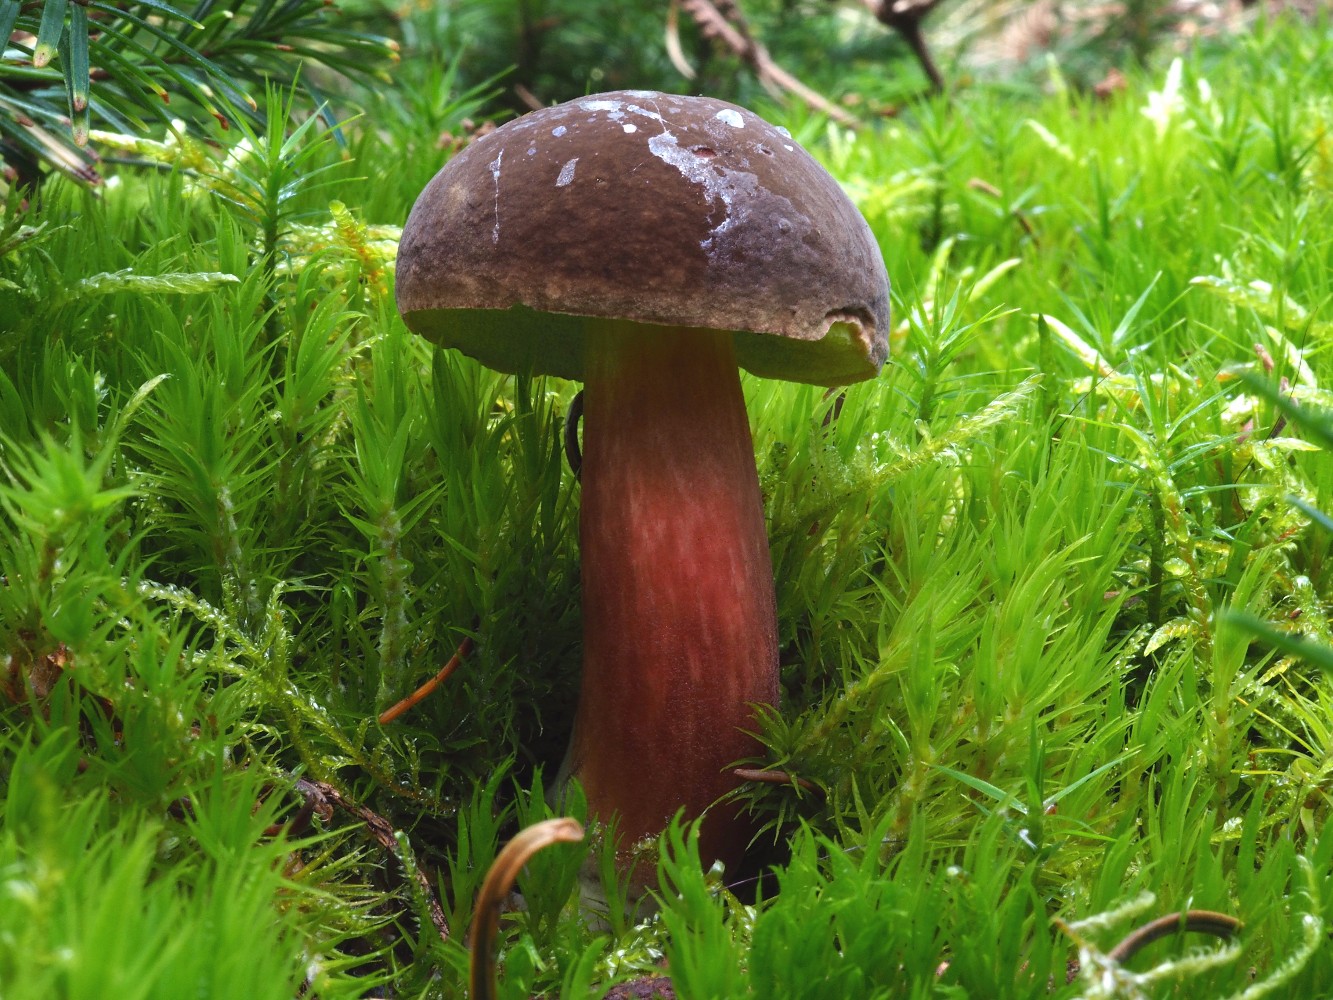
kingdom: Fungi
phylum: Basidiomycota
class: Agaricomycetes
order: Boletales
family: Boletaceae
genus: Xerocomellus
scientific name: Xerocomellus pruinatus
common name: dugget rørhat
